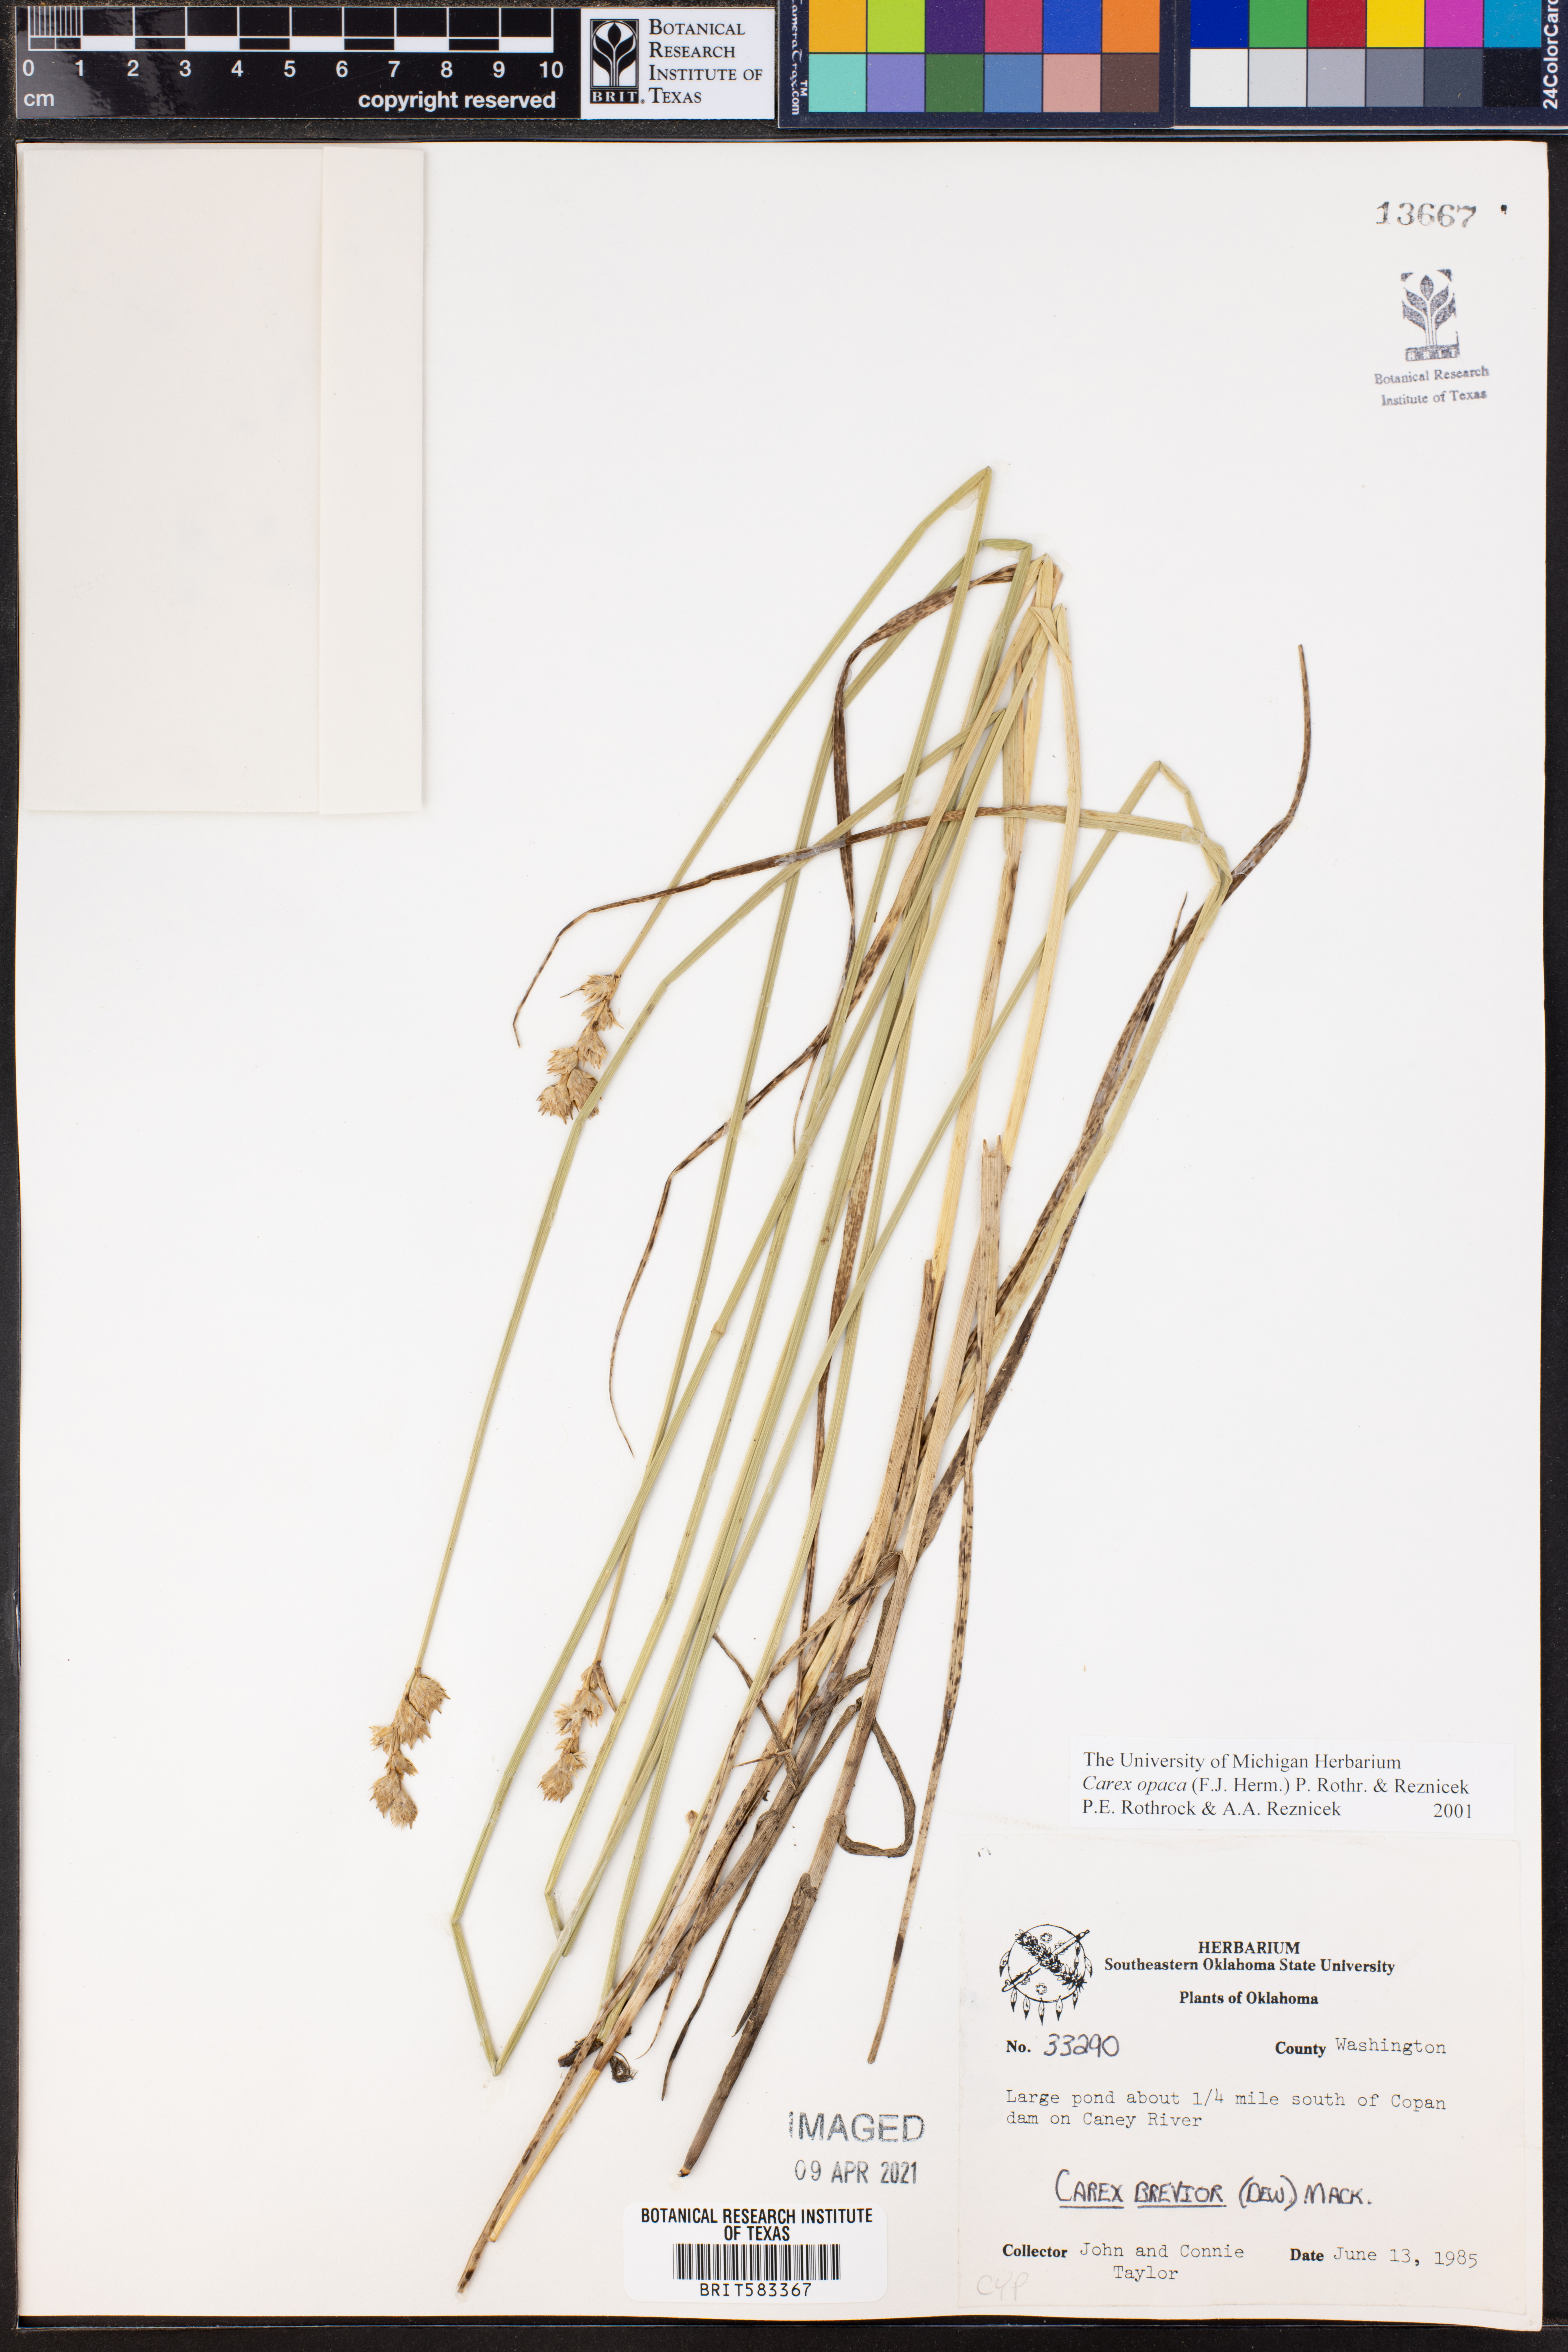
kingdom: Plantae
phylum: Tracheophyta
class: Liliopsida
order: Poales
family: Cyperaceae
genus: Carex
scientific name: Carex opaca
